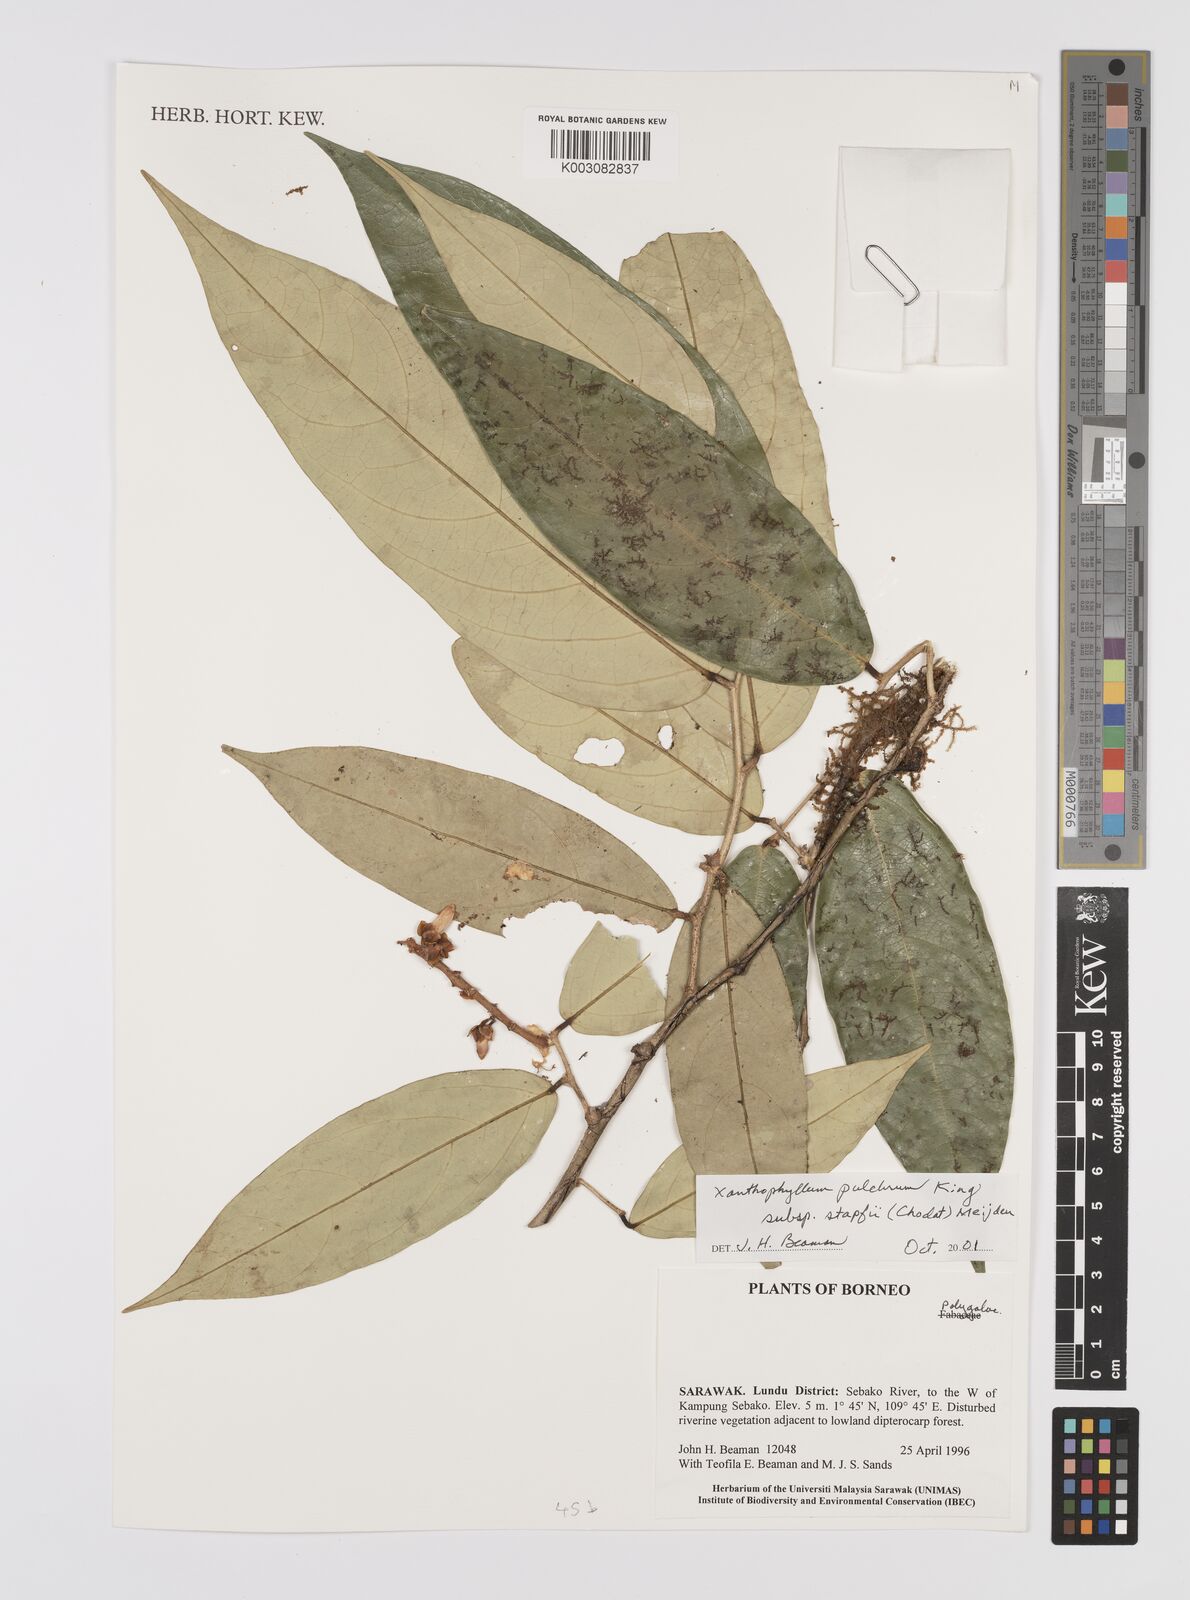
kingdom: Plantae
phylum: Tracheophyta
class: Magnoliopsida
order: Fabales
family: Polygalaceae
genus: Xanthophyllum
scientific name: Xanthophyllum pulchrum
